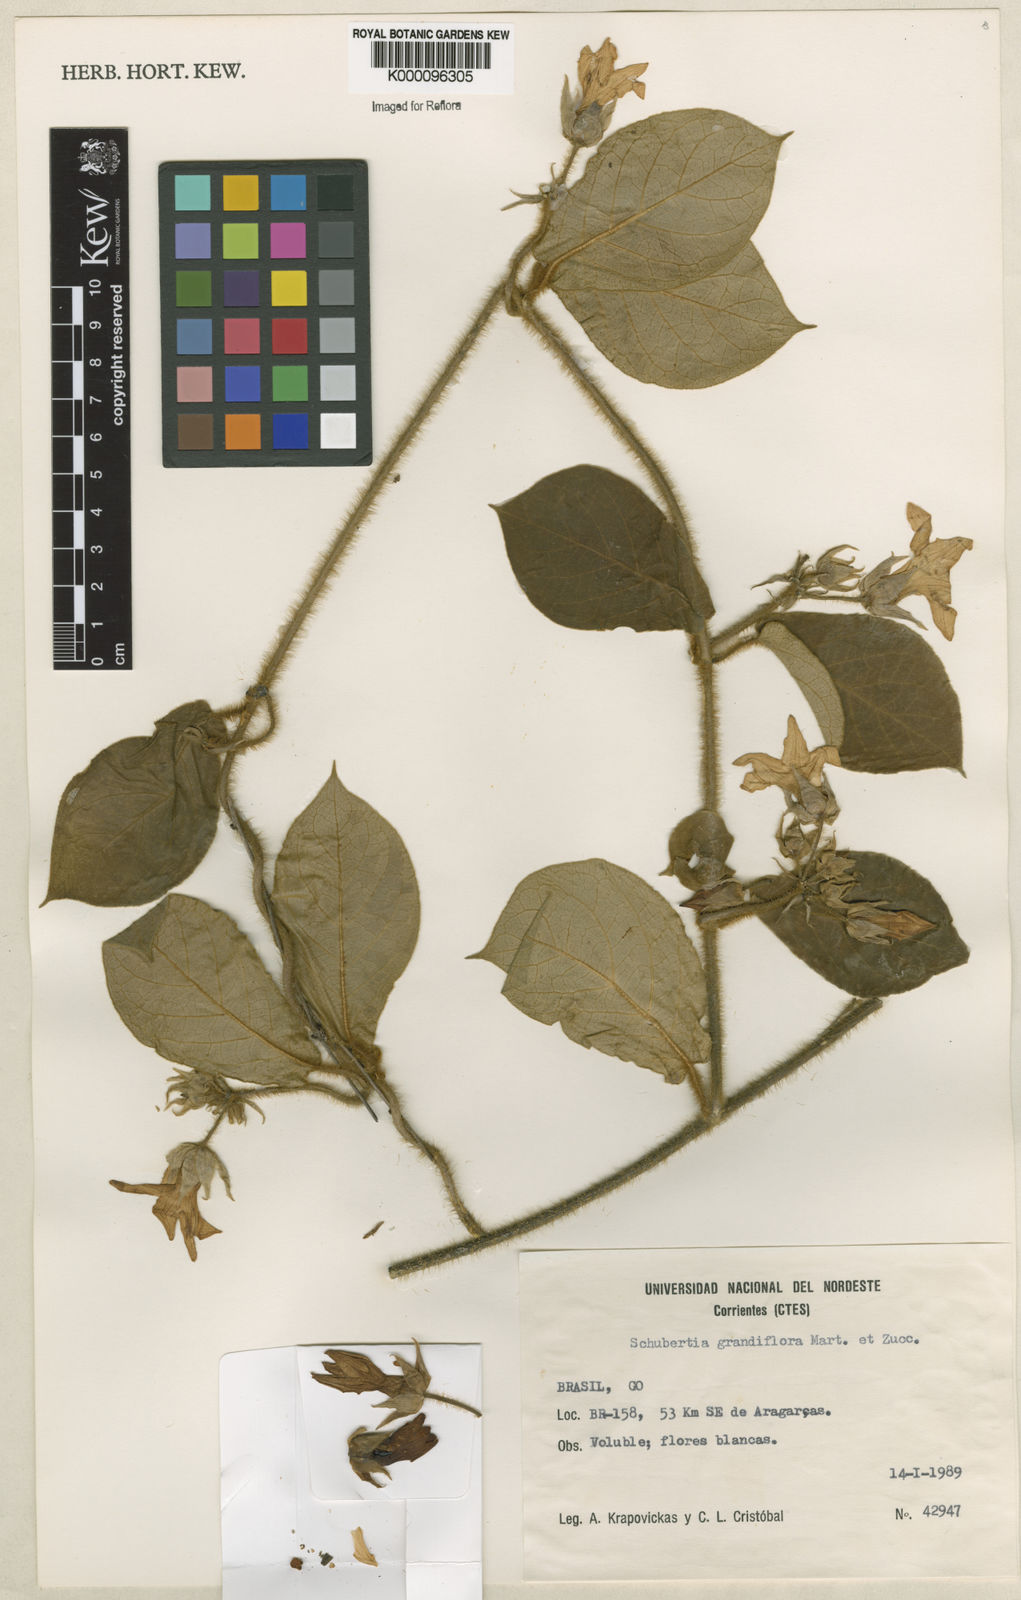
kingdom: Plantae
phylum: Tracheophyta
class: Magnoliopsida
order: Gentianales
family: Apocynaceae
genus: Macroscepis
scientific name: Macroscepis grandiflora
